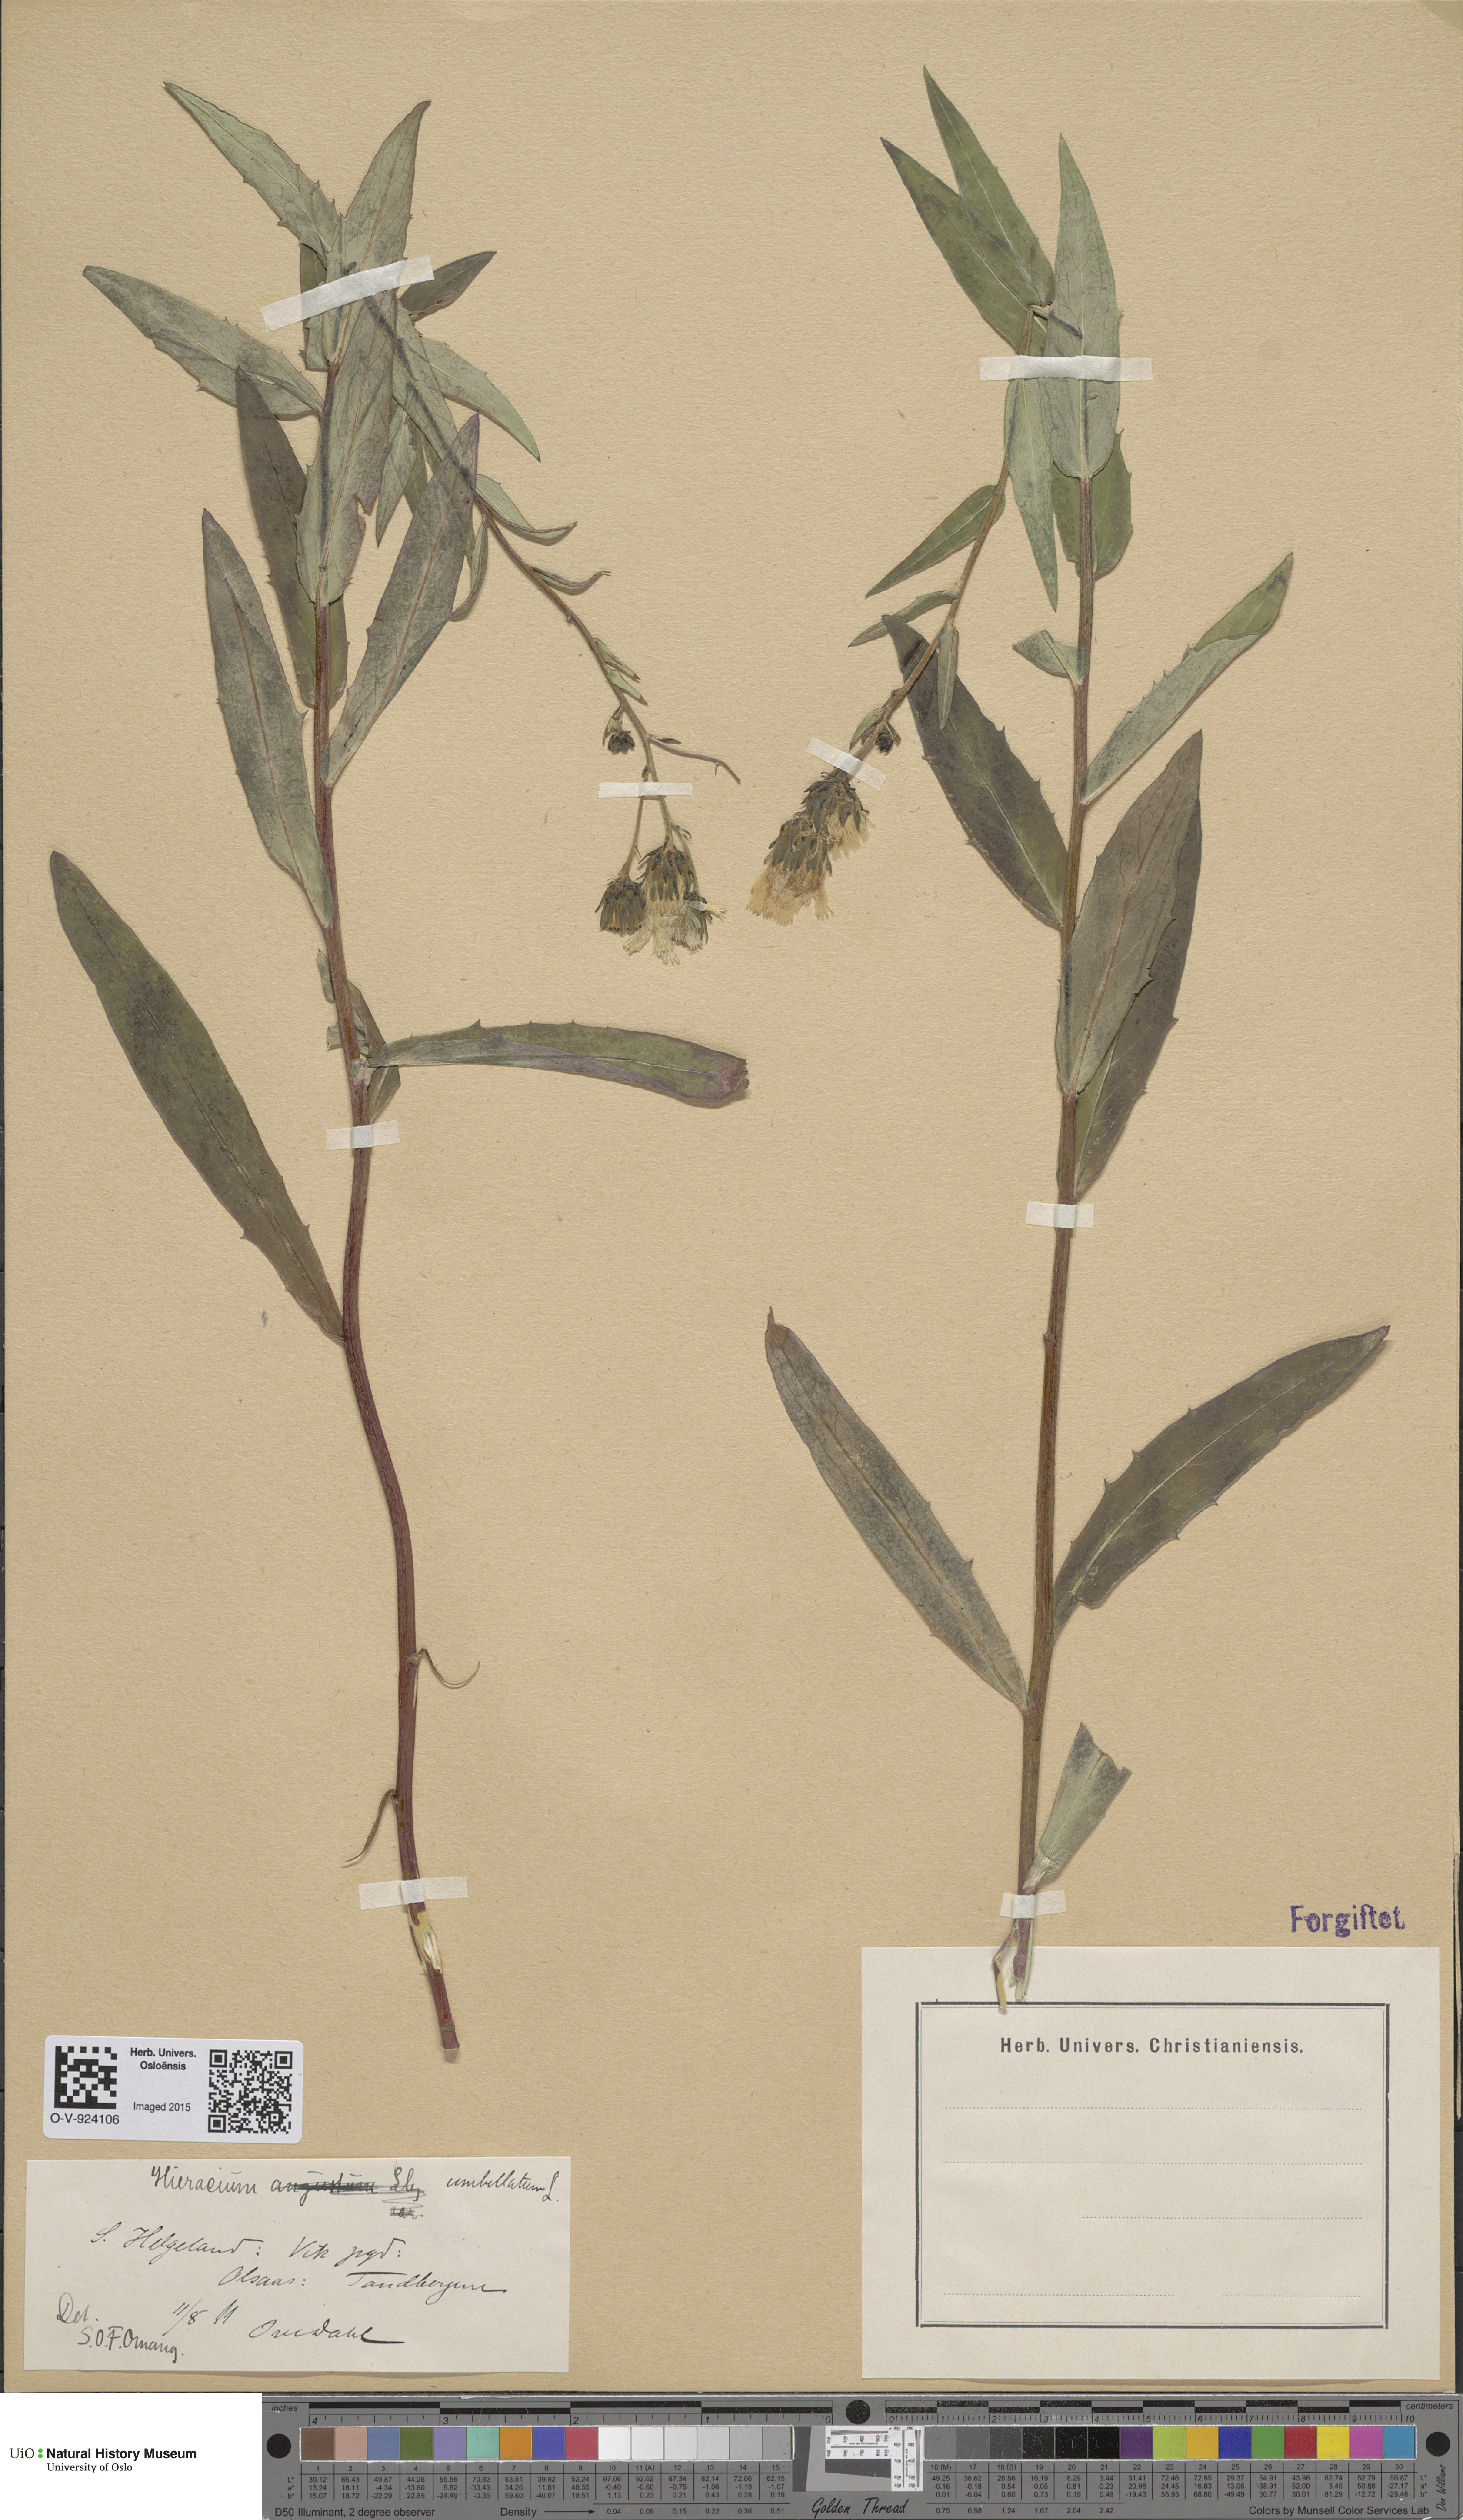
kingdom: Plantae
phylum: Tracheophyta
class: Magnoliopsida
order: Asterales
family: Asteraceae
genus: Hieracium
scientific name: Hieracium umbellatum
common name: Northern hawkweed
